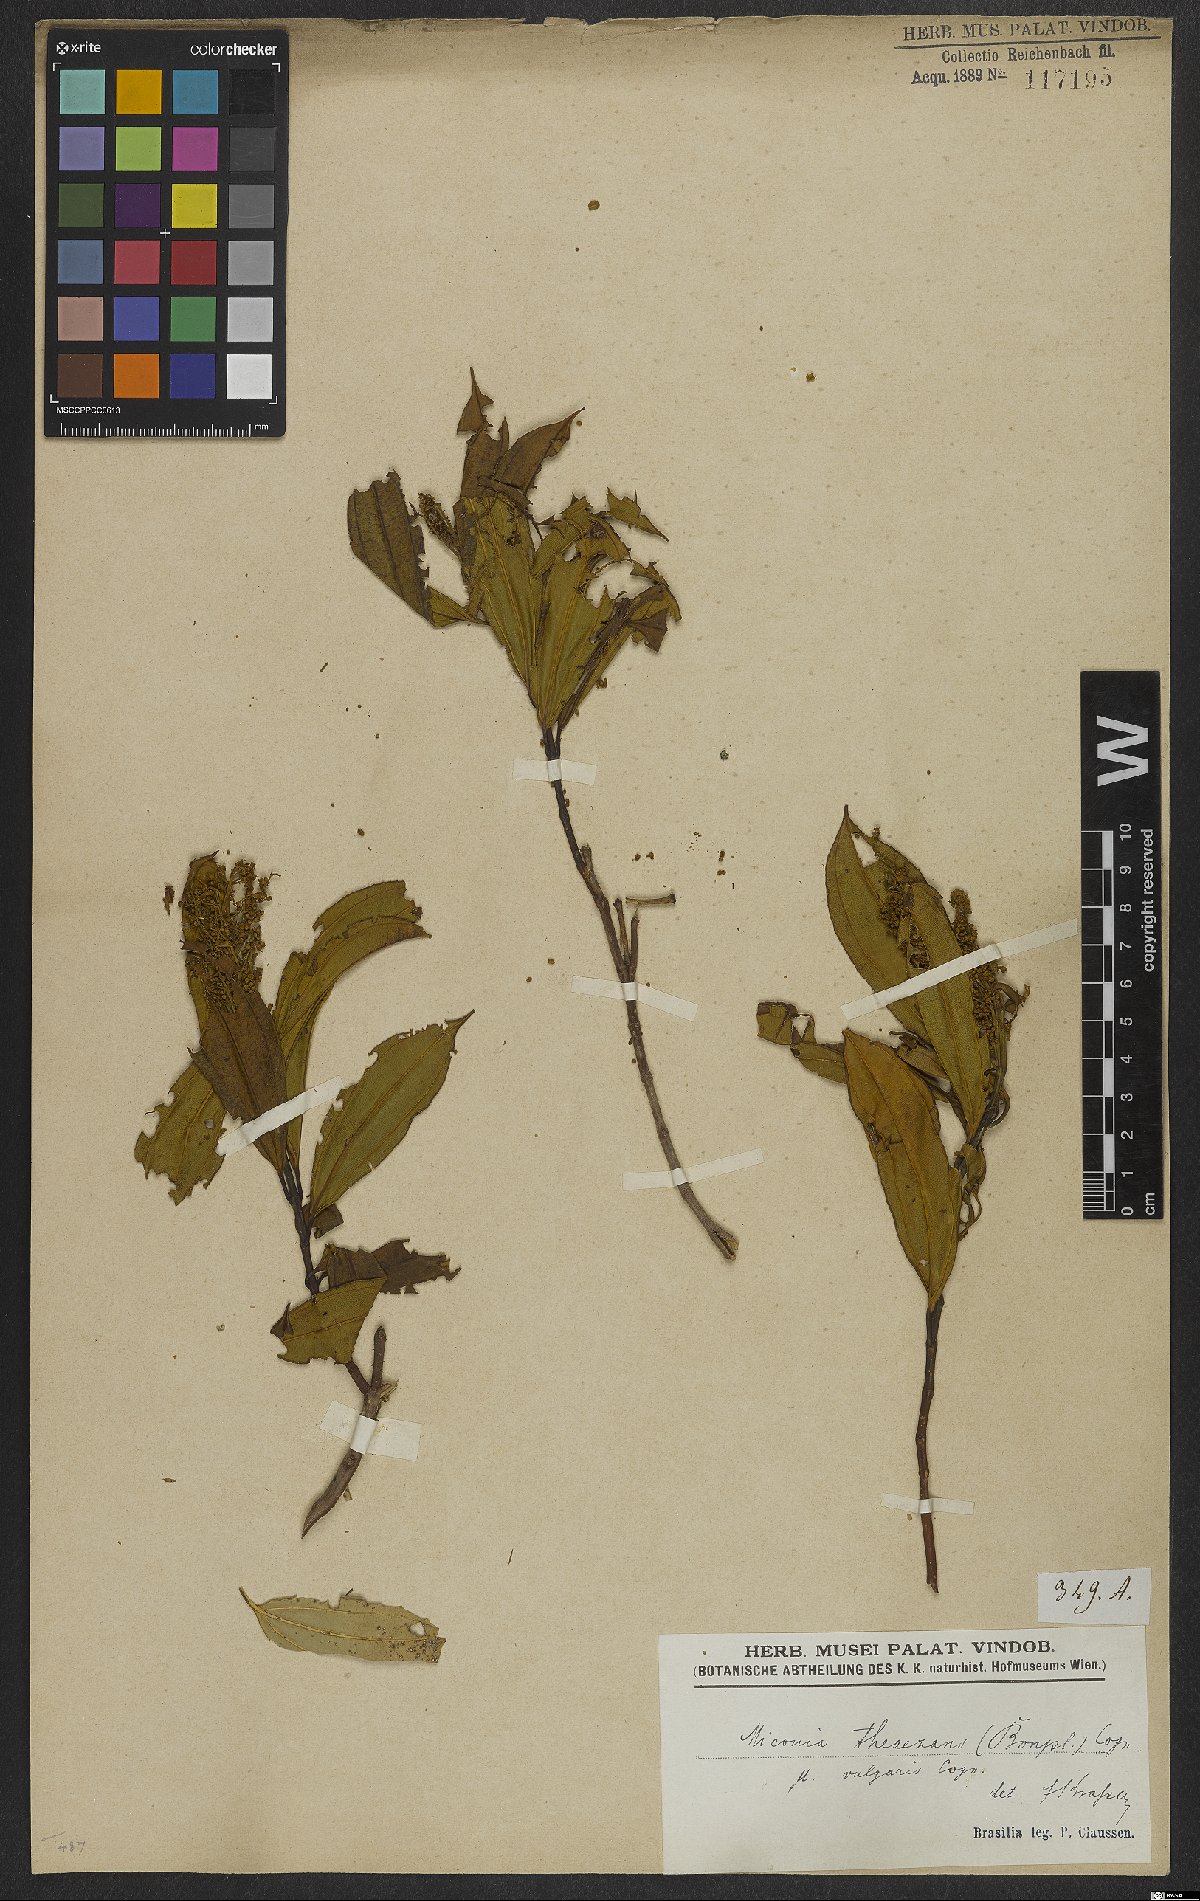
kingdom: Plantae
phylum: Tracheophyta
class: Magnoliopsida
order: Myrtales
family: Melastomataceae
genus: Miconia
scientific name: Miconia theizans
